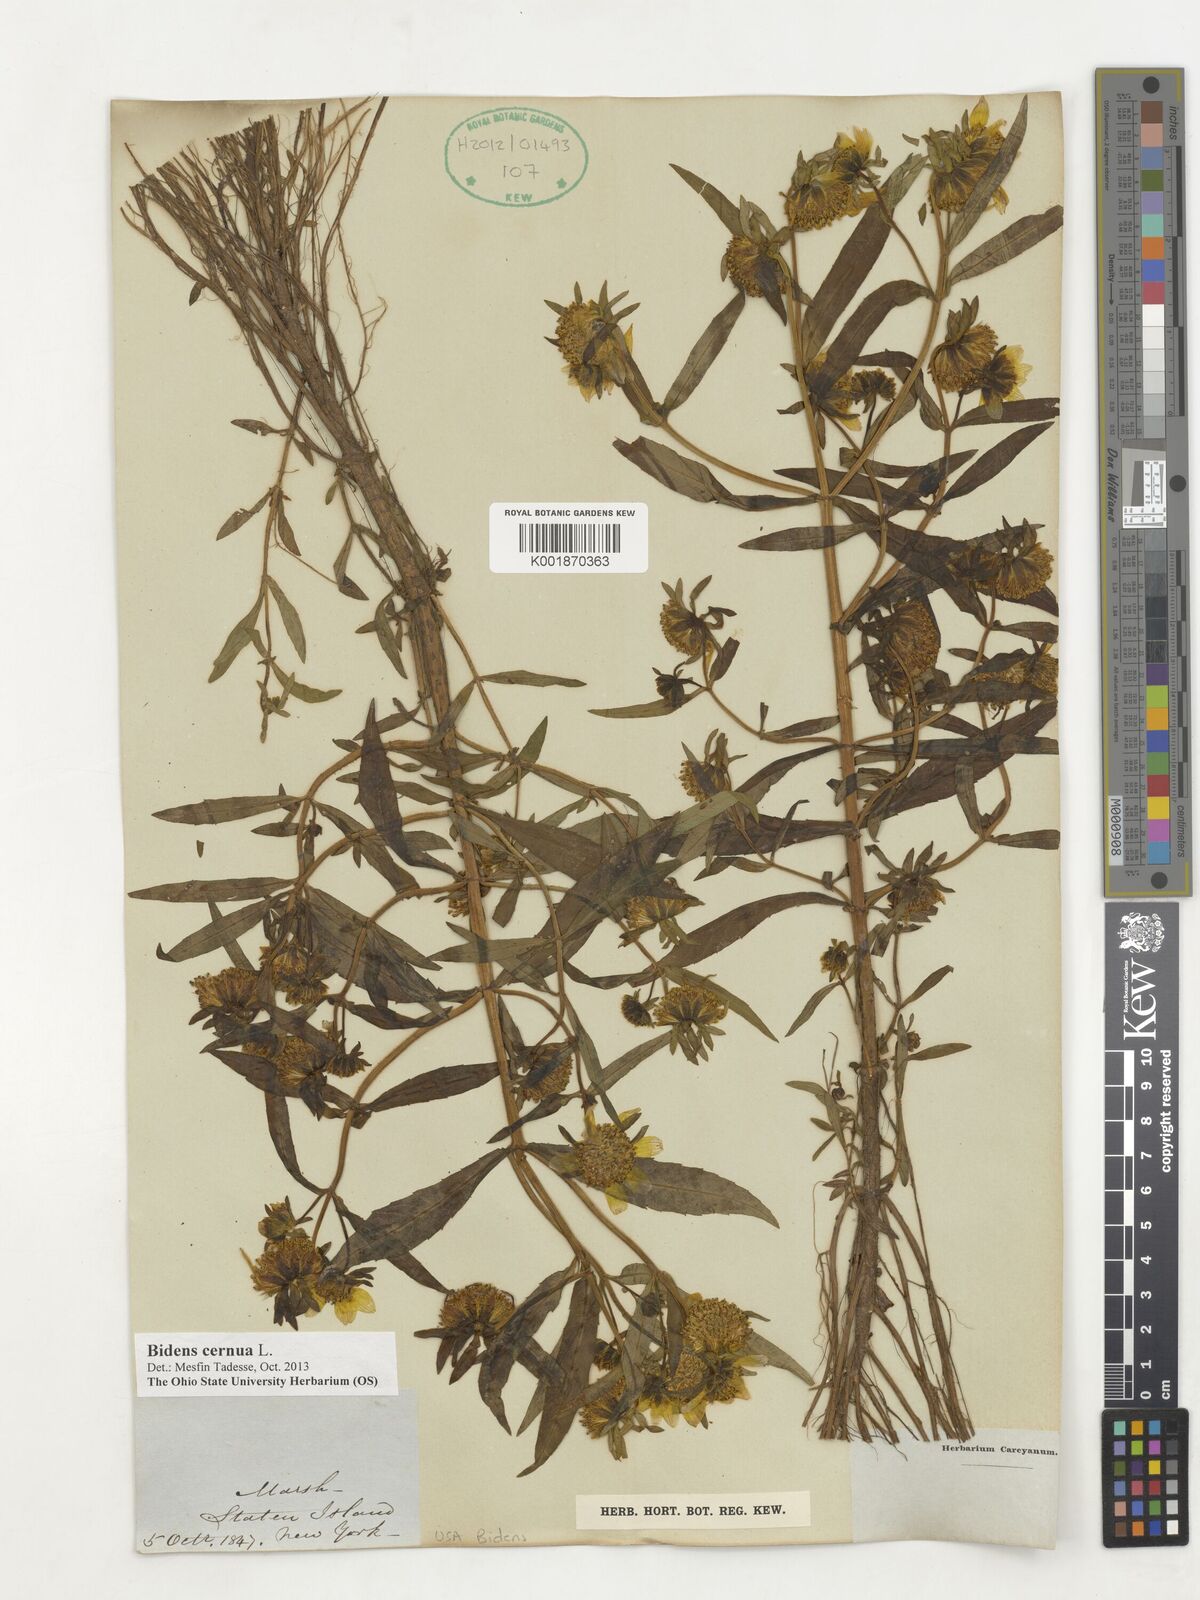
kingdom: Plantae
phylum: Tracheophyta
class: Magnoliopsida
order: Asterales
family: Asteraceae
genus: Bidens
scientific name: Bidens cernua
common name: Nodding bur-marigold
